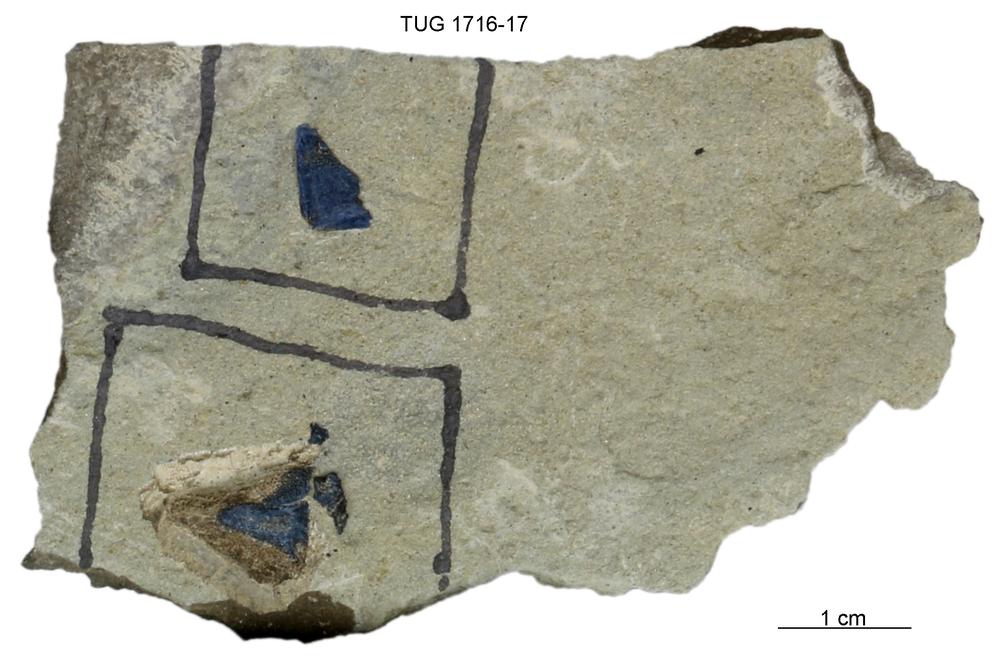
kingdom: Animalia
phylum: Chordata
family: Coccosteidae
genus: Millerosteus
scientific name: Millerosteus minor
